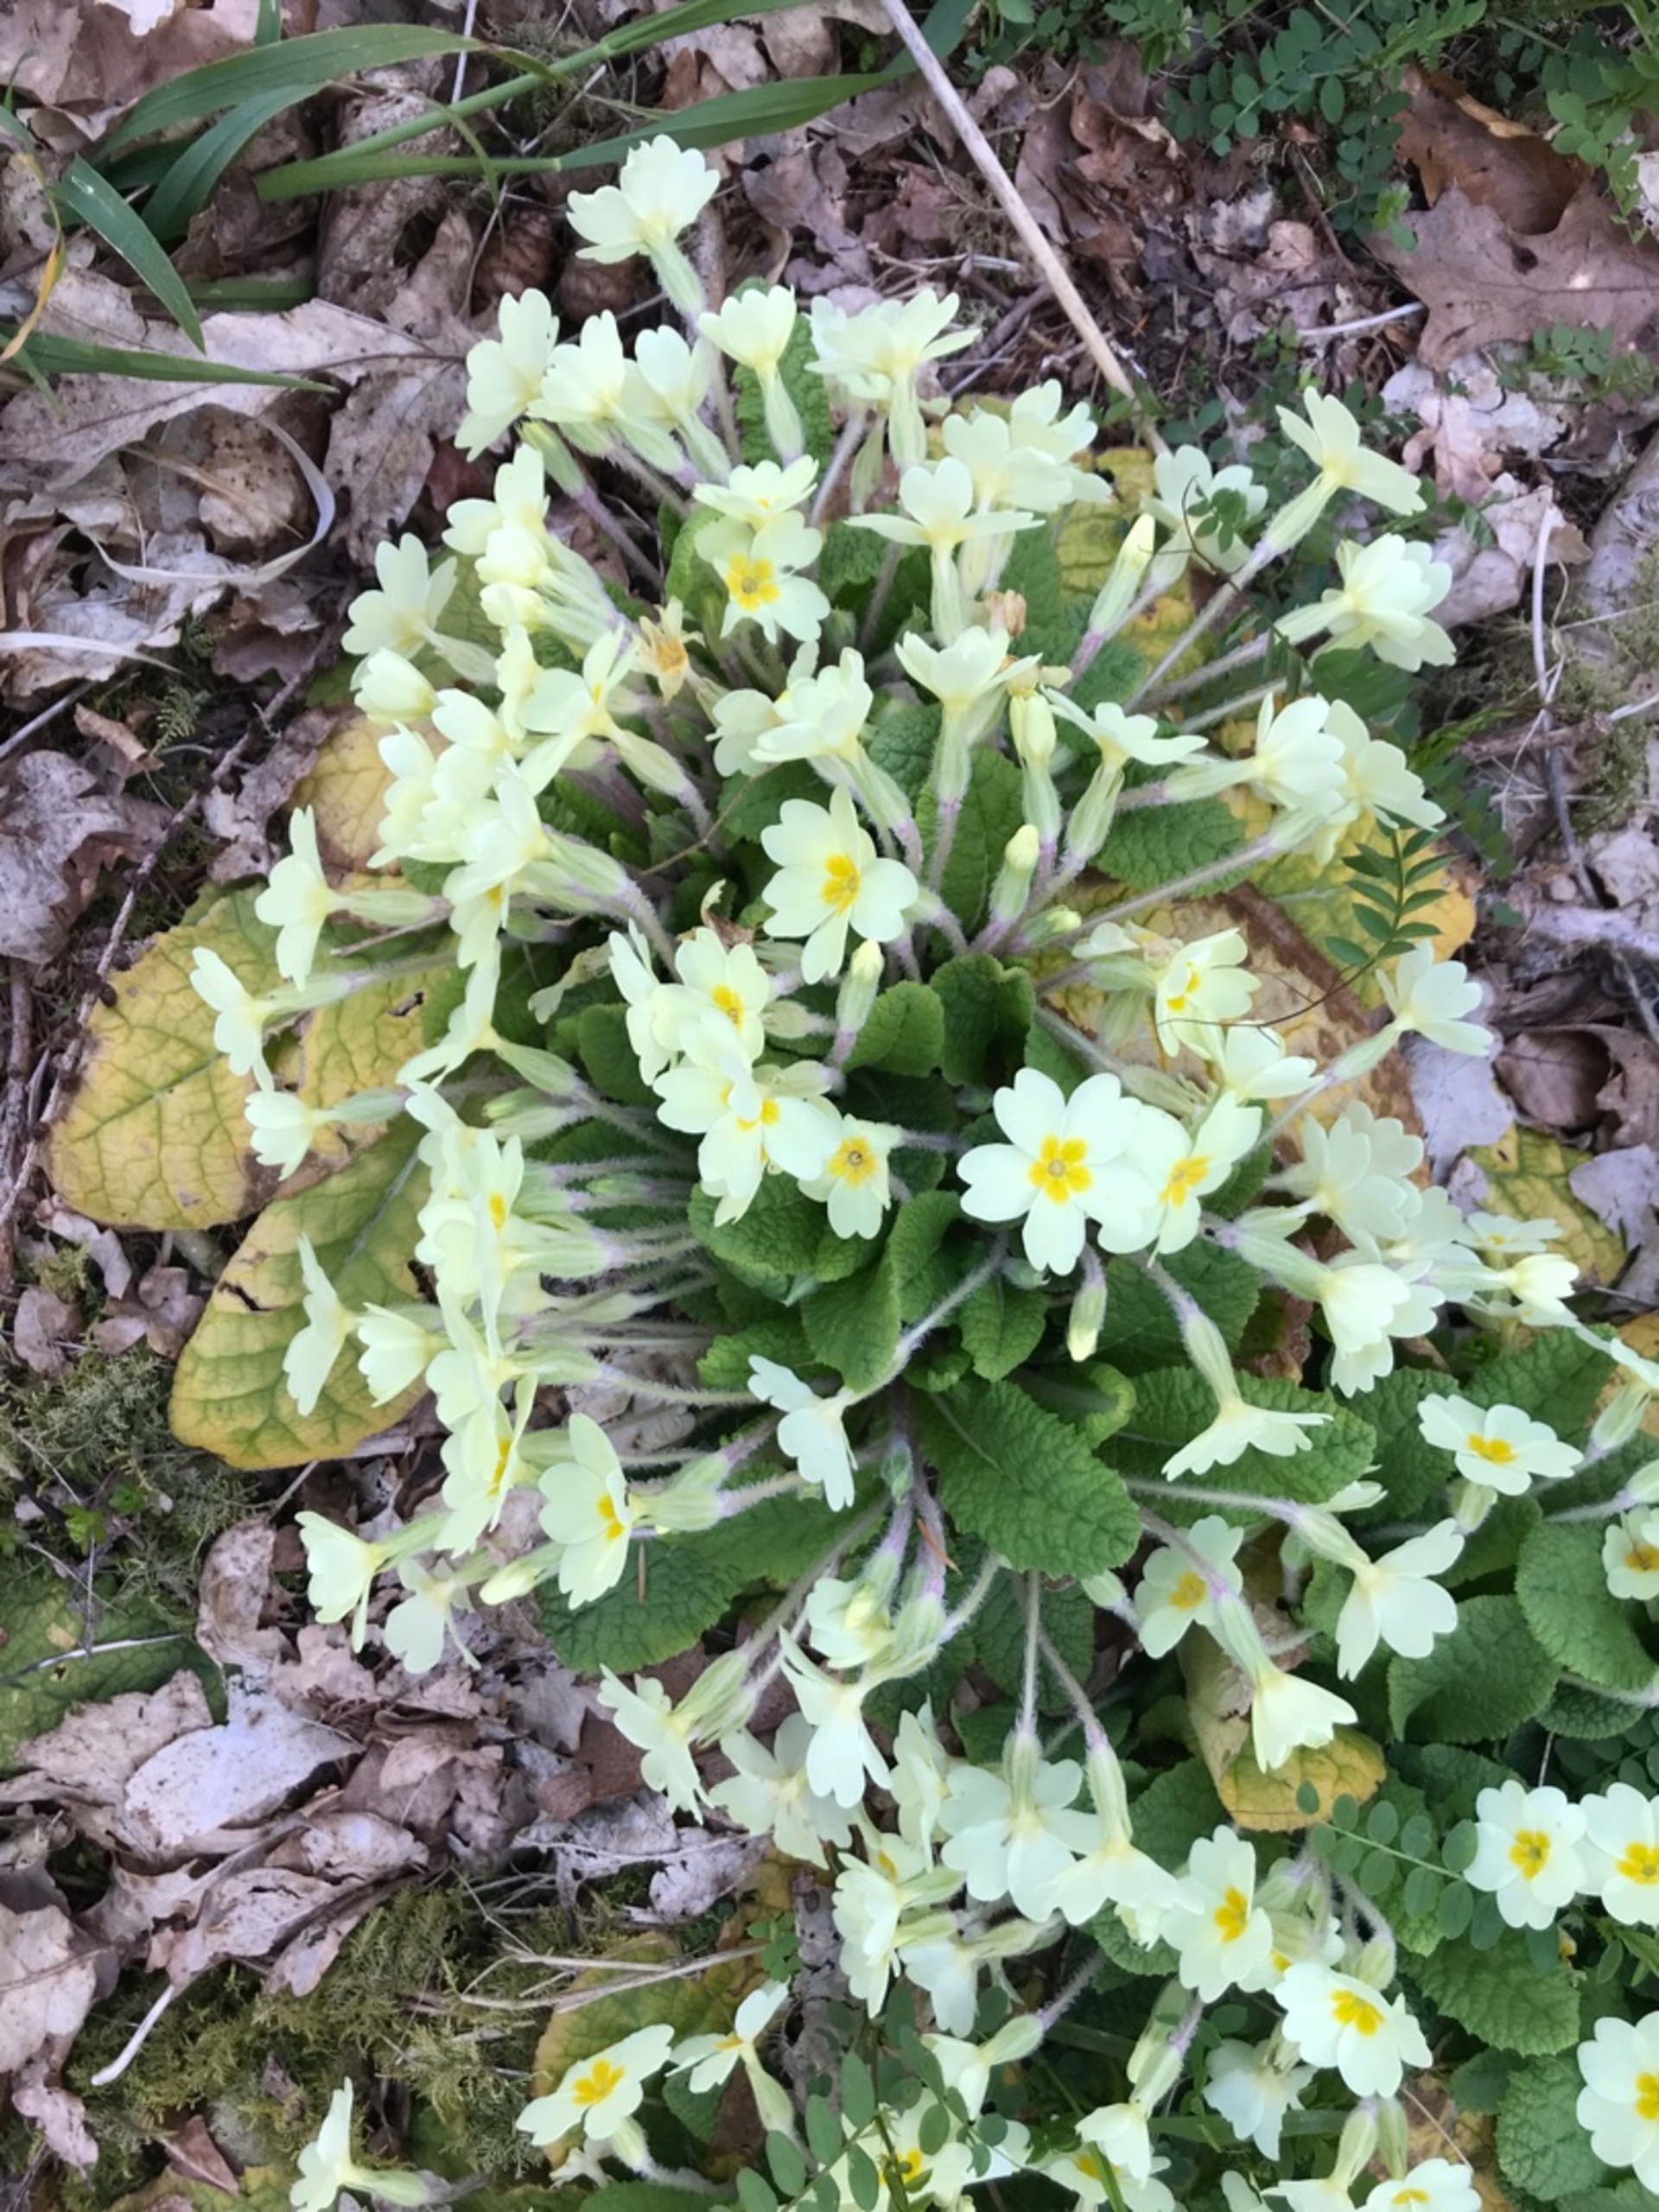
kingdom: Plantae
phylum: Tracheophyta
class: Magnoliopsida
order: Ericales
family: Primulaceae
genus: Primula
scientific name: Primula vulgaris
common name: Storblomstret kodriver
